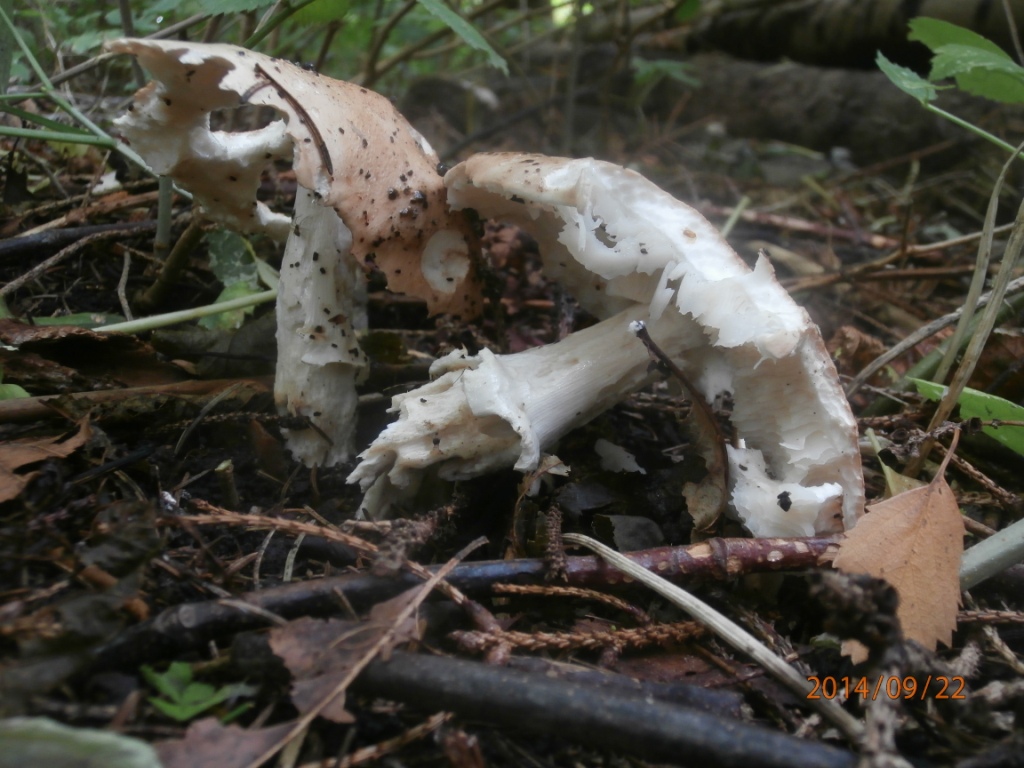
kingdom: Fungi
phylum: Basidiomycota
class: Agaricomycetes
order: Agaricales
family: Amanitaceae
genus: Limacellopsis
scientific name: Limacellopsis guttata
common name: tåre-snekkehat
